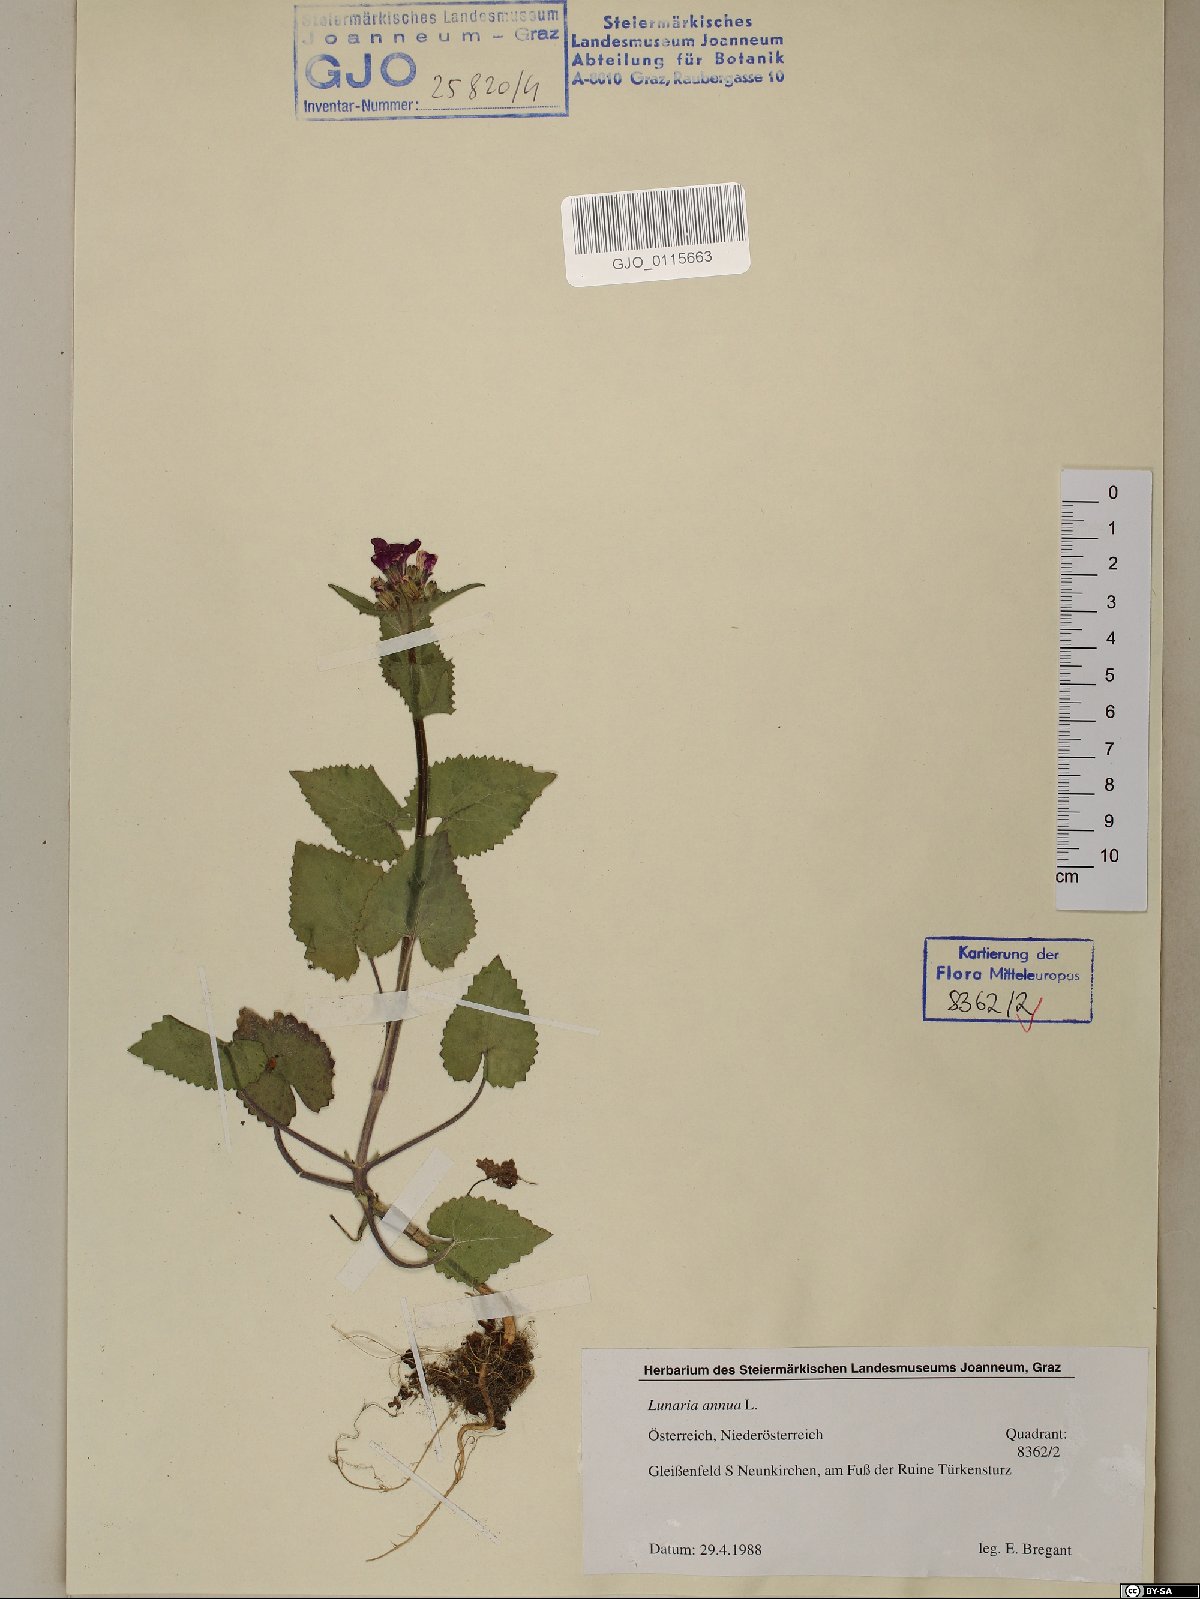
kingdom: Plantae
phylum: Tracheophyta
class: Magnoliopsida
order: Brassicales
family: Brassicaceae
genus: Lunaria
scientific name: Lunaria annua
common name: Honesty
